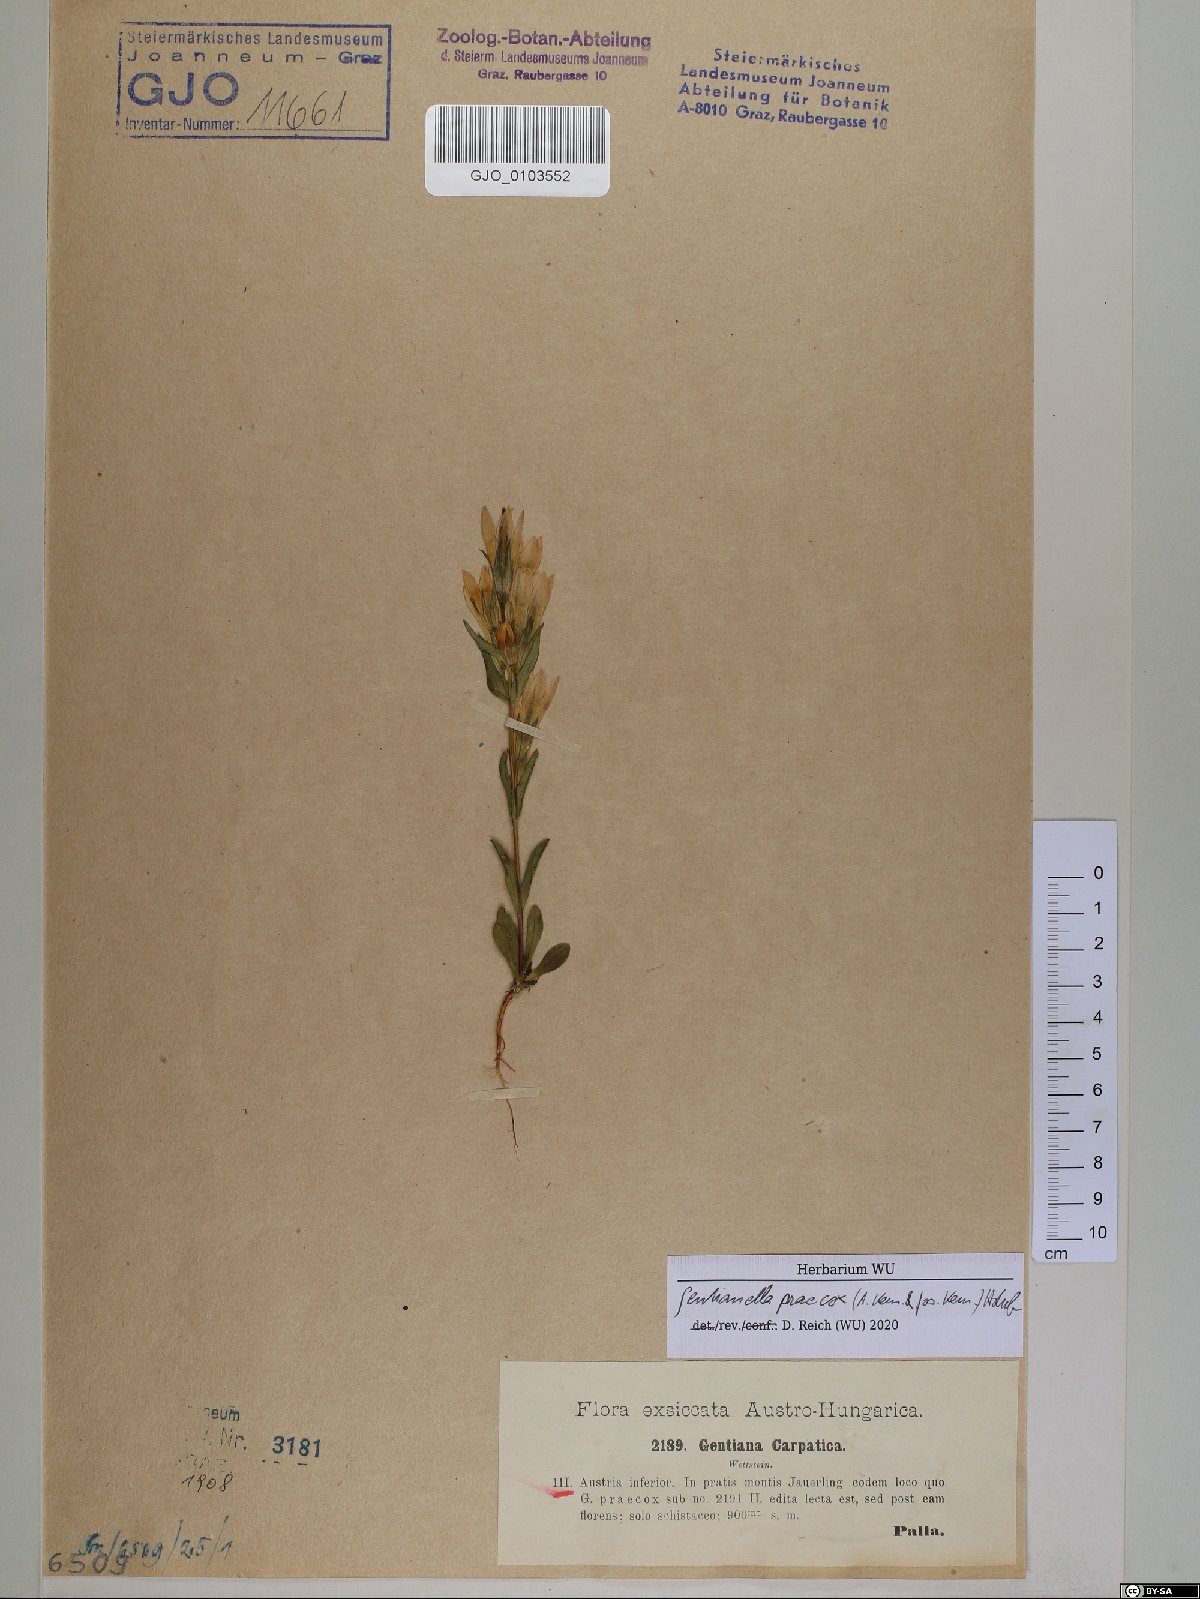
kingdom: Plantae
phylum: Tracheophyta
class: Magnoliopsida
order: Gentianales
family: Gentianaceae
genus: Gentianella
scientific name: Gentianella praecox
